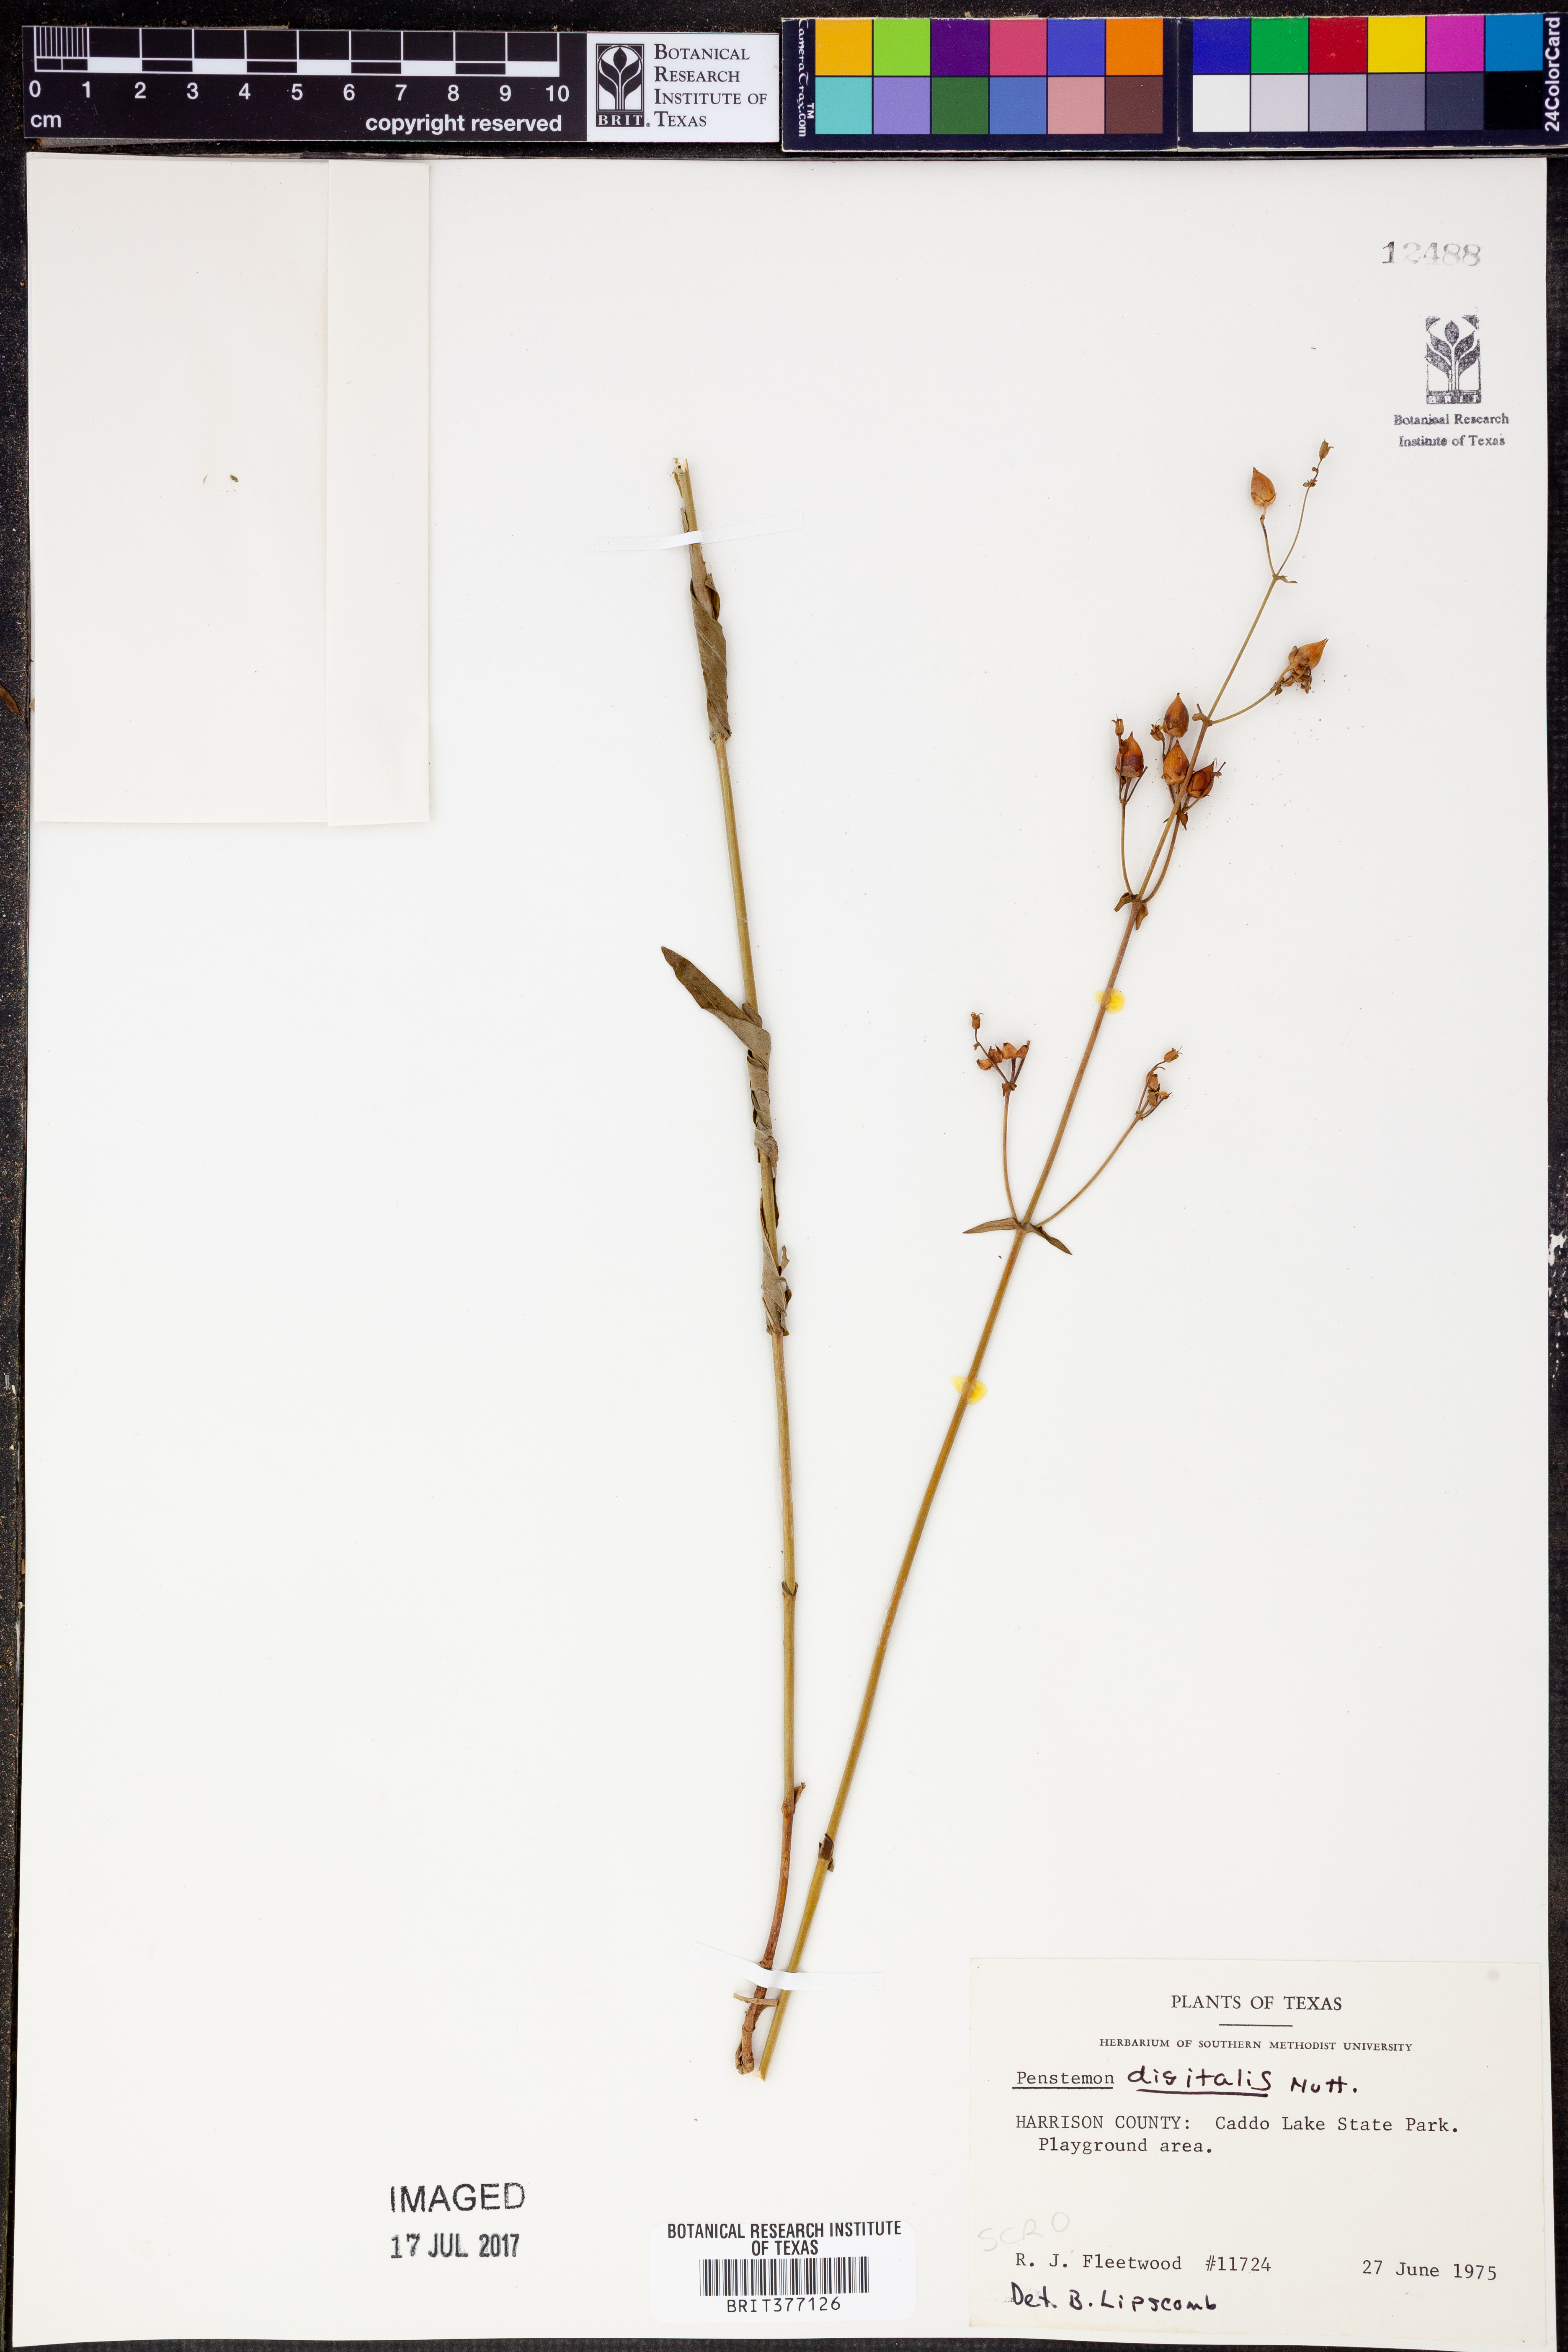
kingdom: Plantae
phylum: Tracheophyta
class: Magnoliopsida
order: Lamiales
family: Plantaginaceae
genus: Penstemon
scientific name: Penstemon digitalis
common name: Foxglove beardtongue
